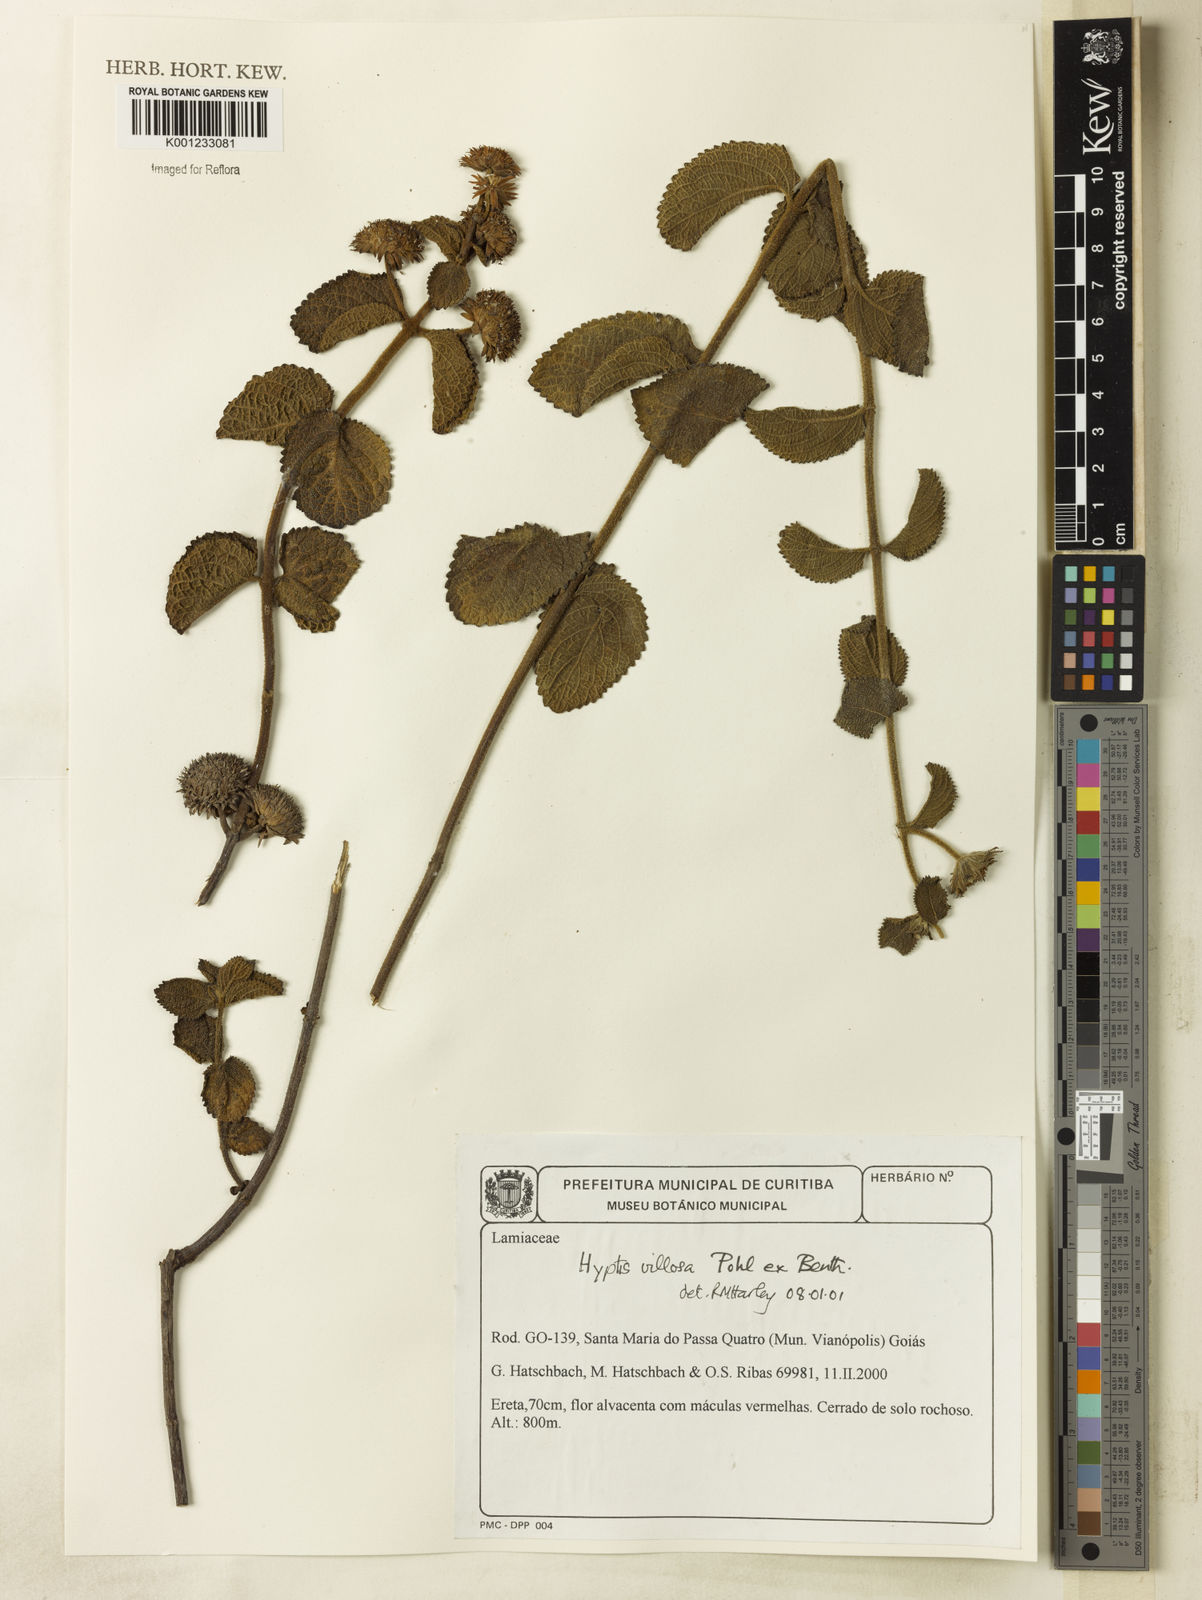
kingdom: Plantae
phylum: Tracheophyta
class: Magnoliopsida
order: Lamiales
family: Lamiaceae
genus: Hyptis
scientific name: Hyptis villosa
